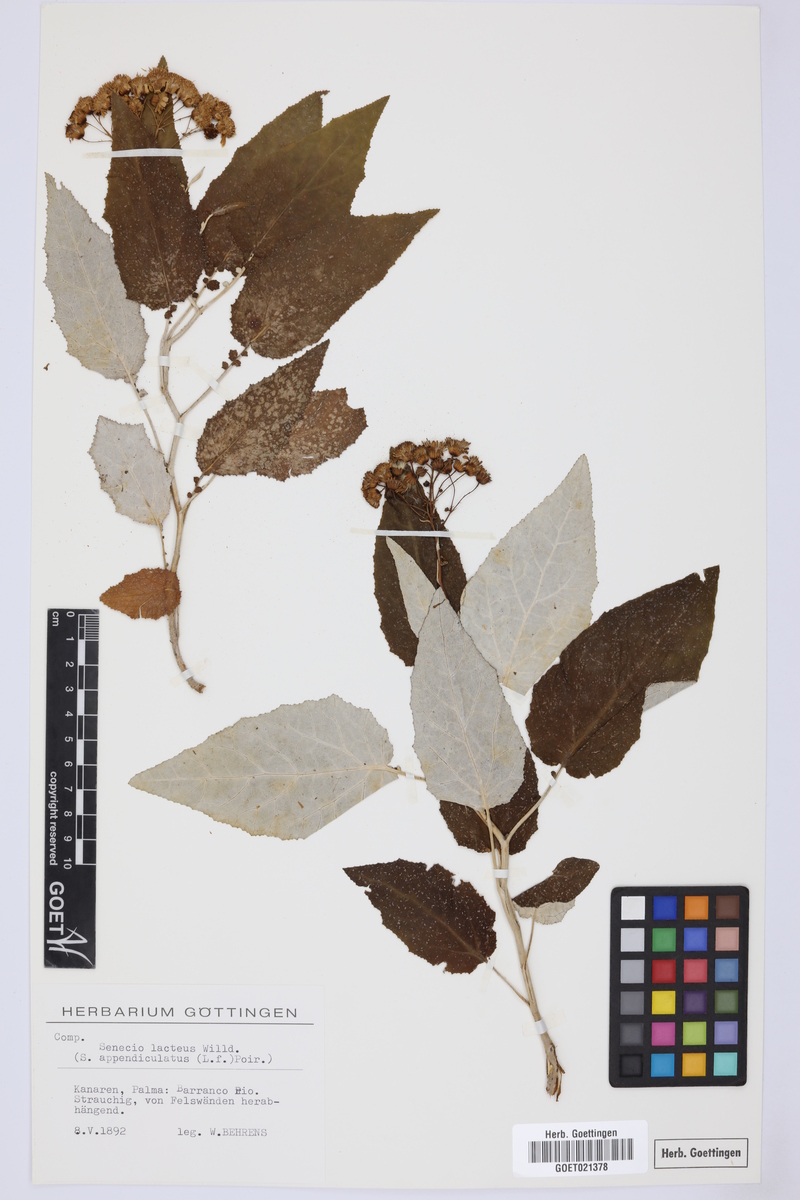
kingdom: Plantae
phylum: Tracheophyta
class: Magnoliopsida
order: Asterales
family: Asteraceae
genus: Senecio
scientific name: Senecio appendiculatus
